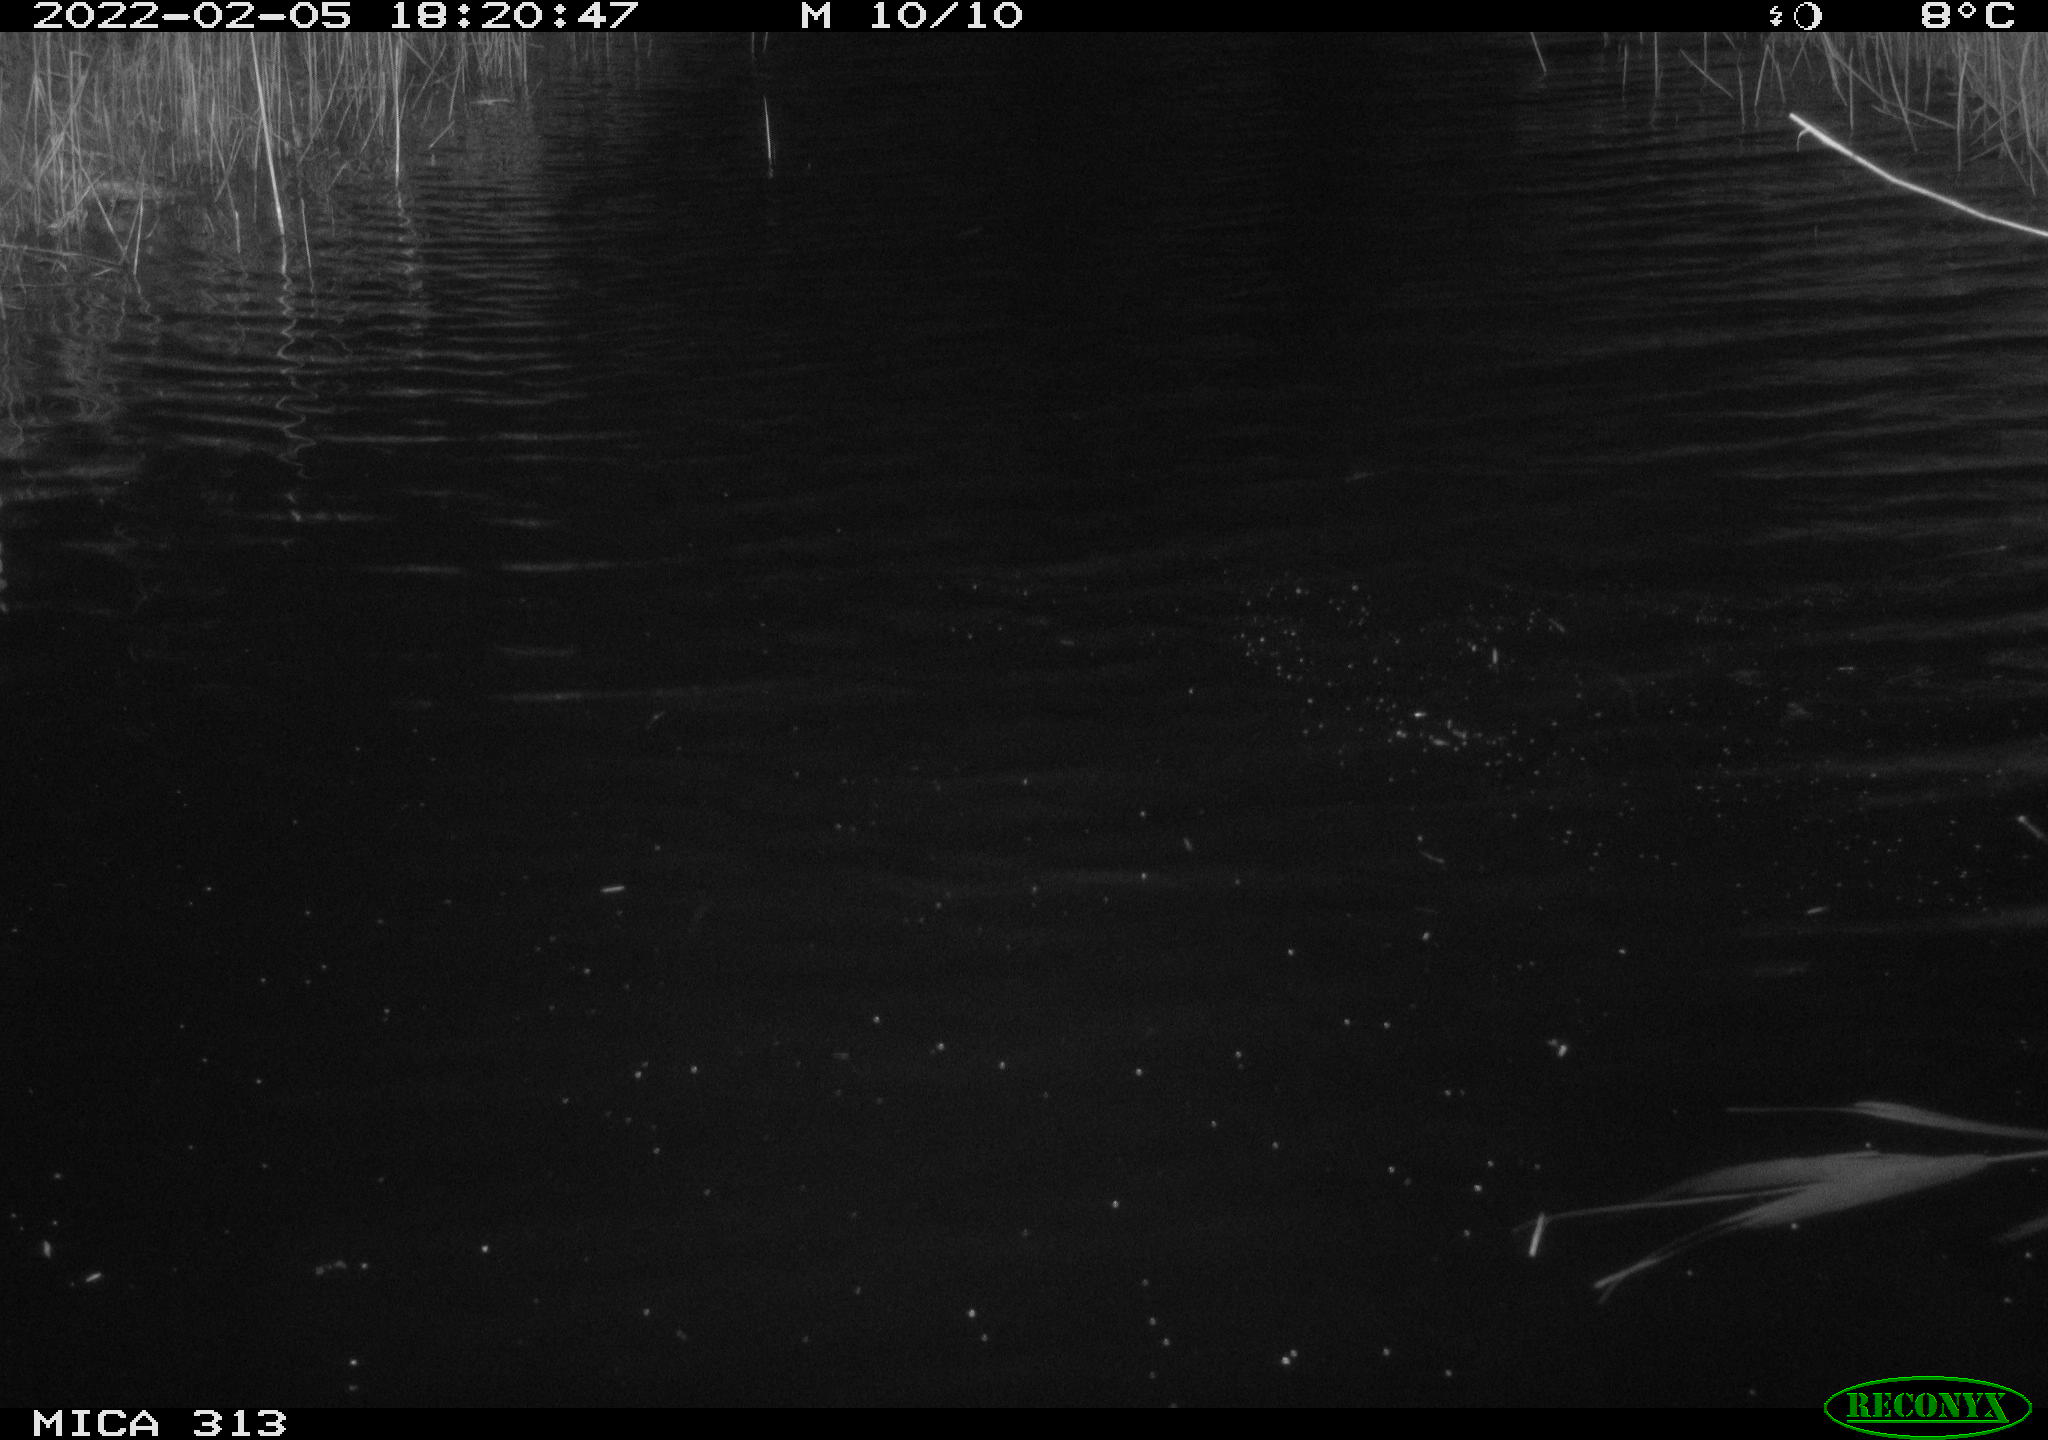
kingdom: Animalia
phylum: Chordata
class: Aves
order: Gruiformes
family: Rallidae
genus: Gallinula
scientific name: Gallinula chloropus
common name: Common moorhen
